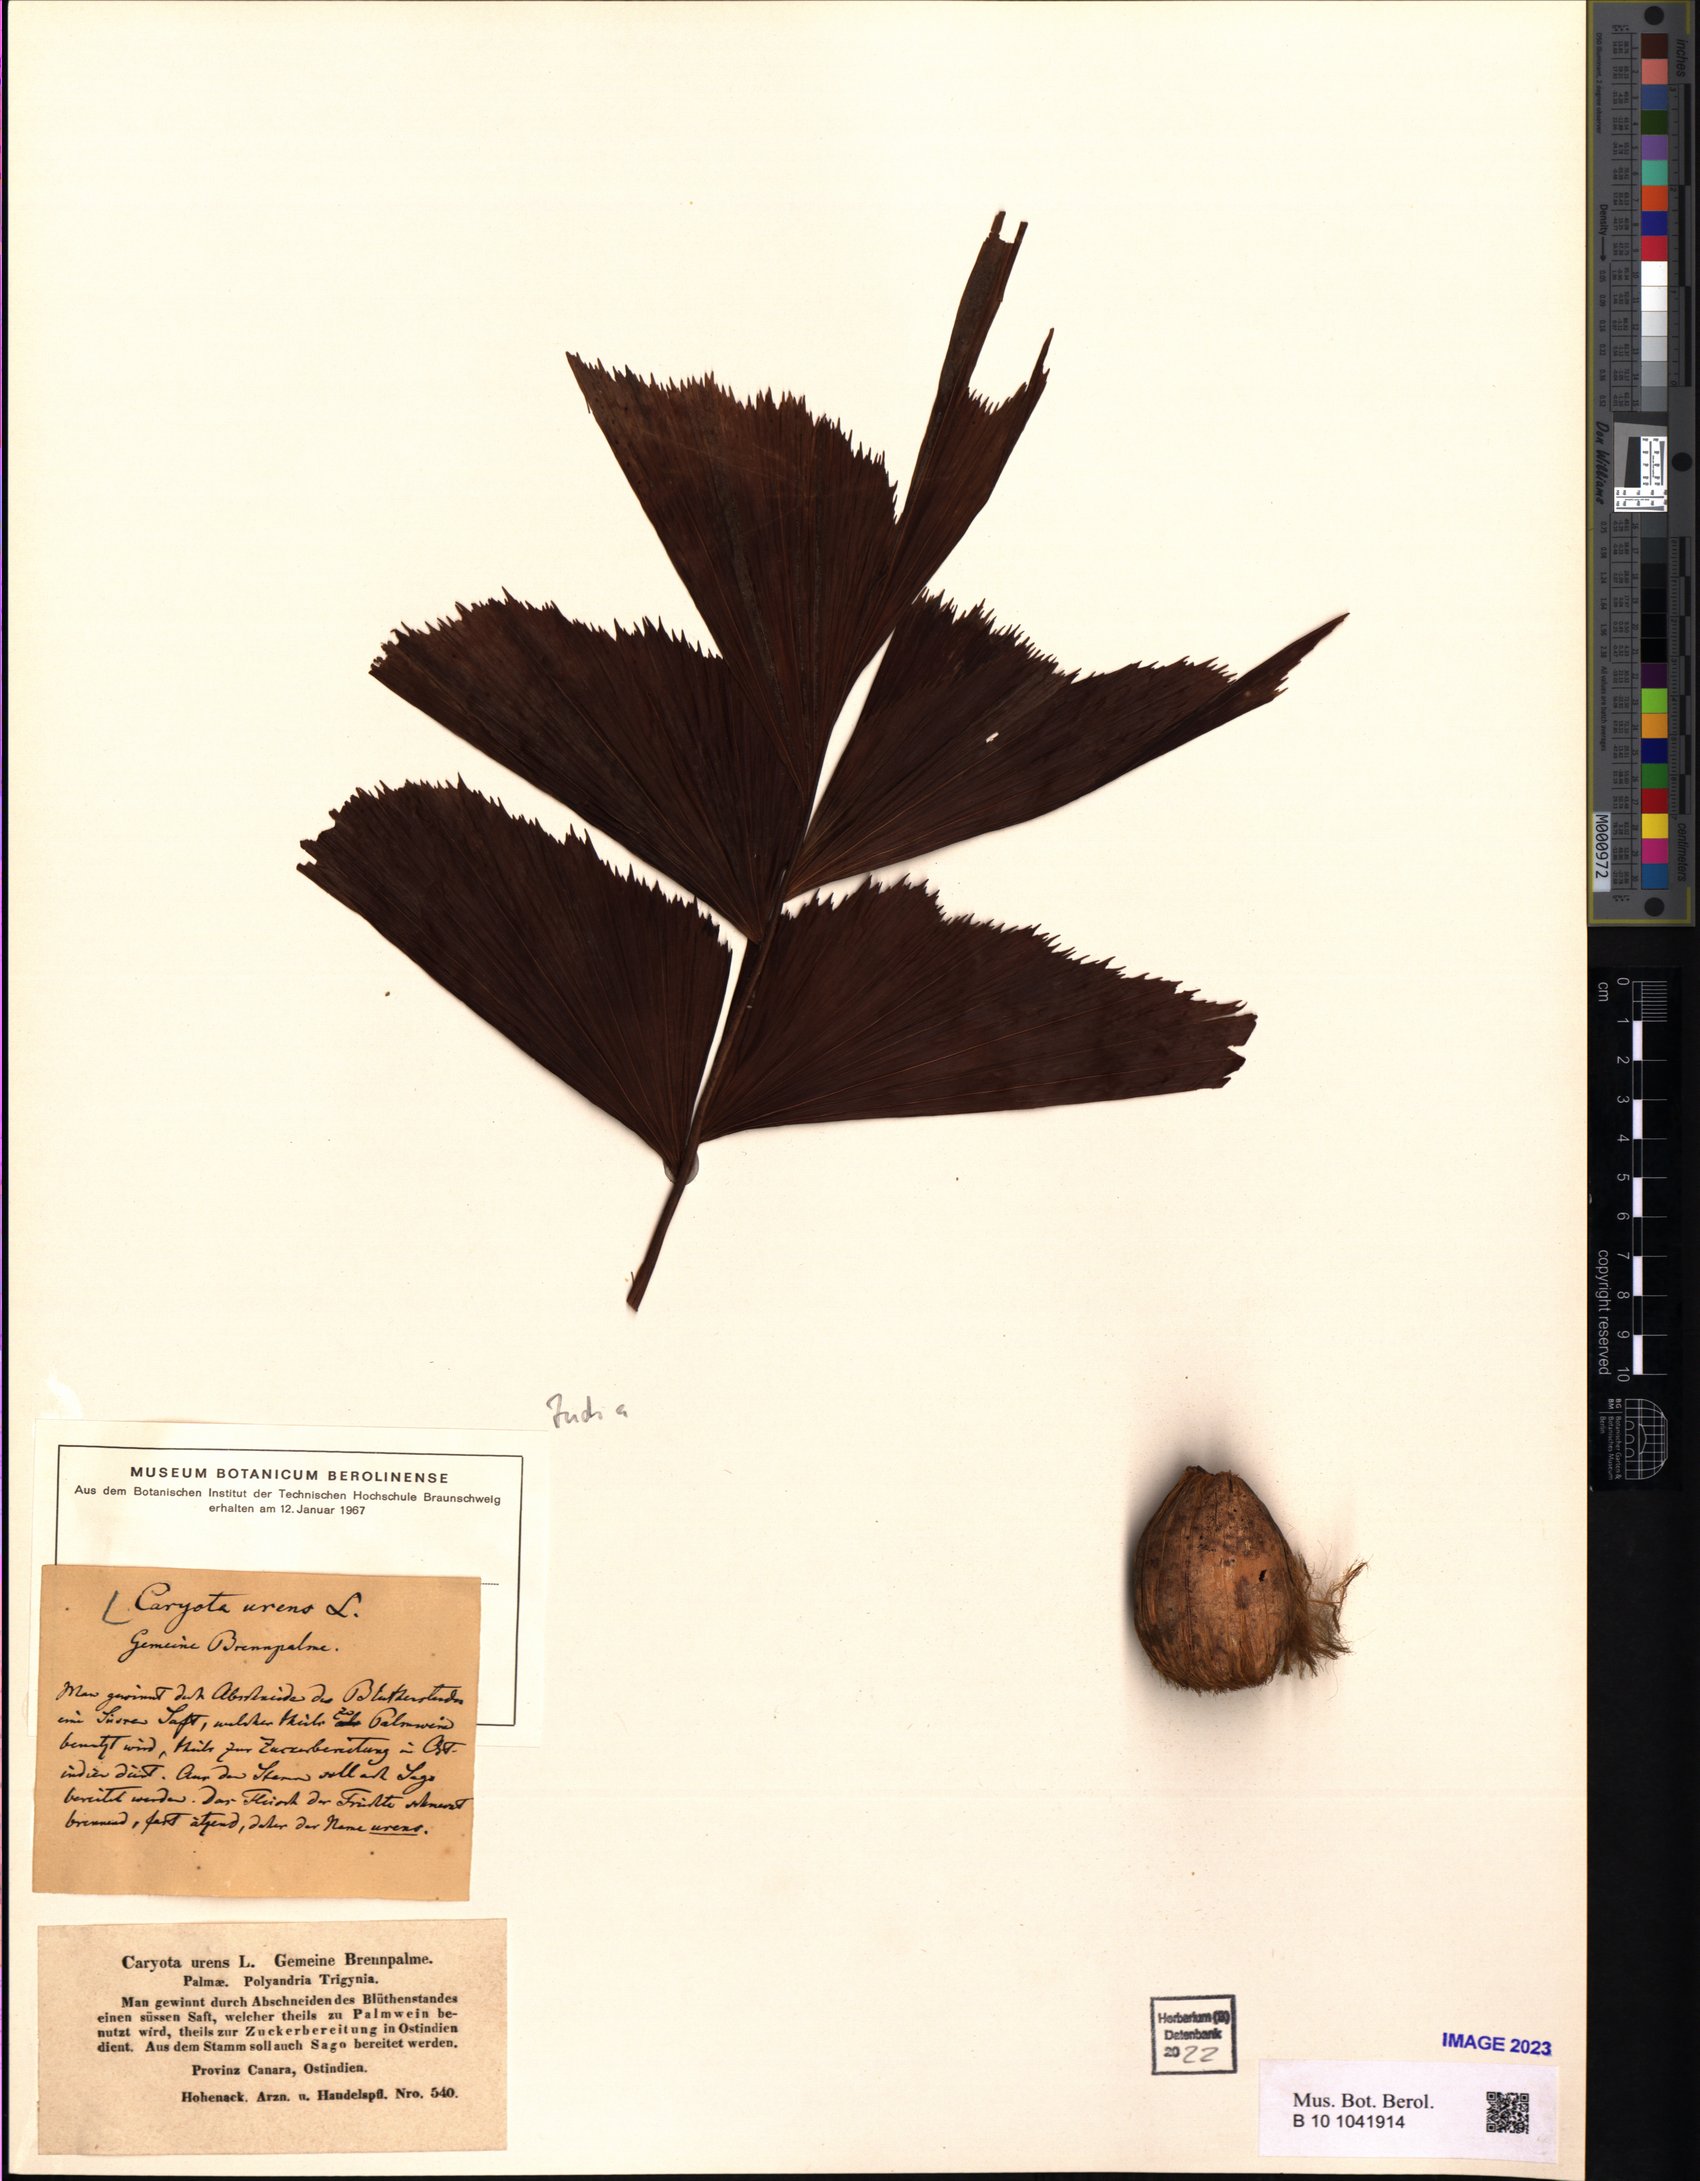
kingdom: Plantae
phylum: Tracheophyta
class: Liliopsida
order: Arecales
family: Arecaceae
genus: Caryota
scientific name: Caryota urens
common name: Jaggery palm
